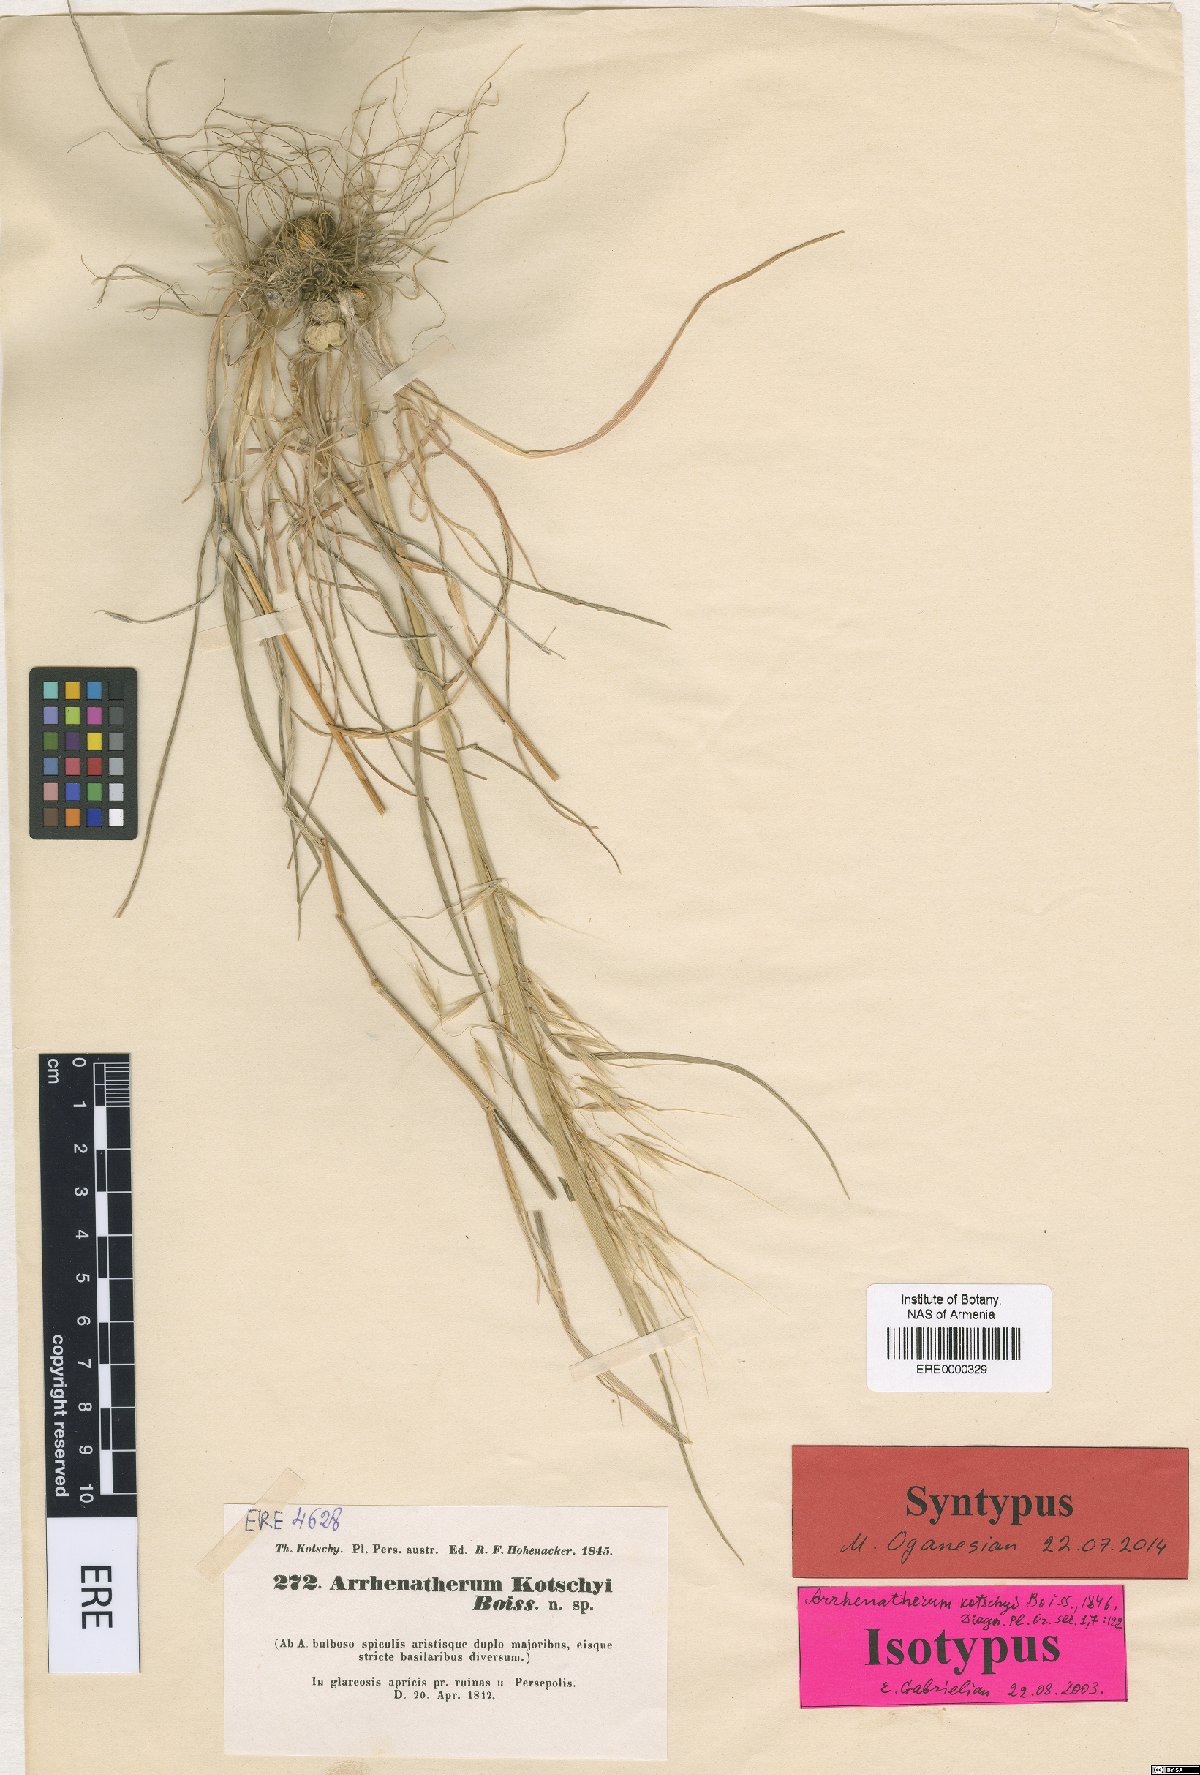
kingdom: Plantae
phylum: Tracheophyta
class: Liliopsida
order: Poales
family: Poaceae
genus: Arrhenatherum
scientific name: Arrhenatherum kotschyi
